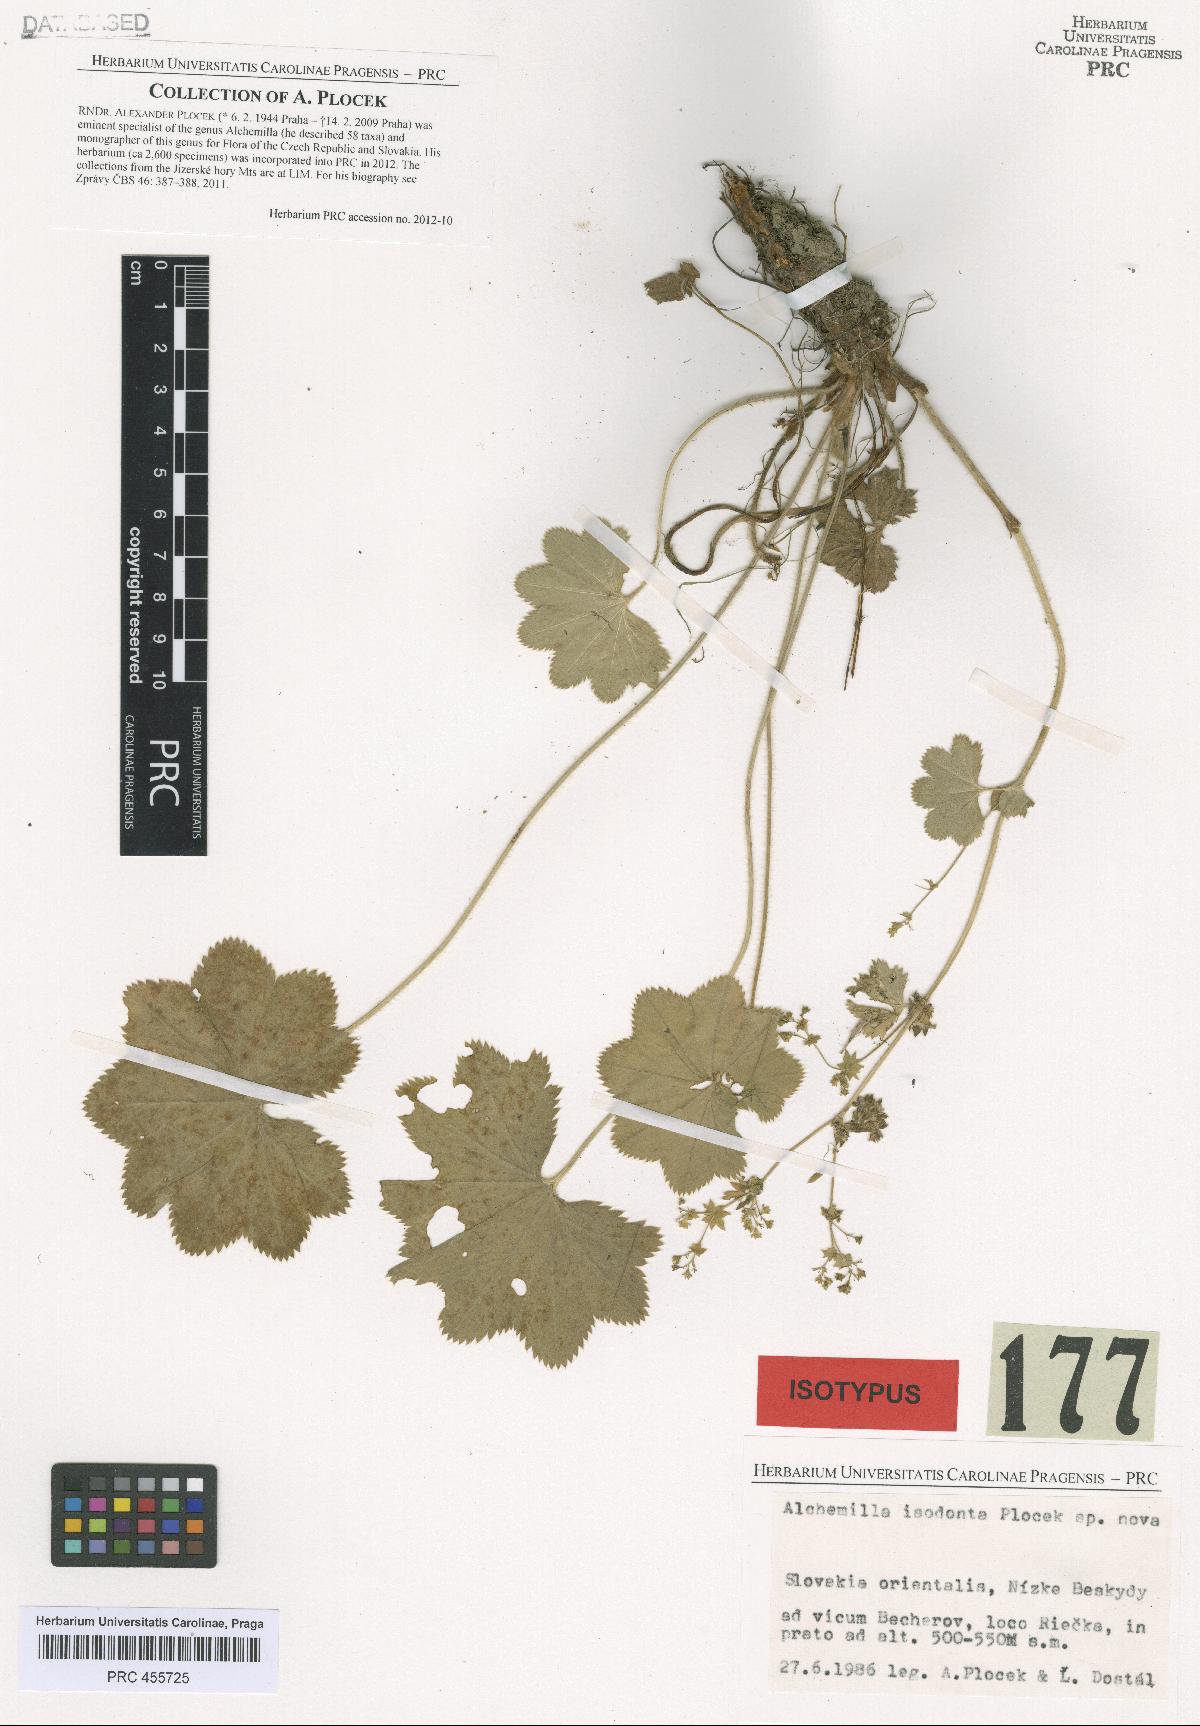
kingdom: Plantae
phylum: Tracheophyta
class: Magnoliopsida
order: Rosales
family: Rosaceae
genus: Alchemilla
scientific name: Alchemilla isodonta
